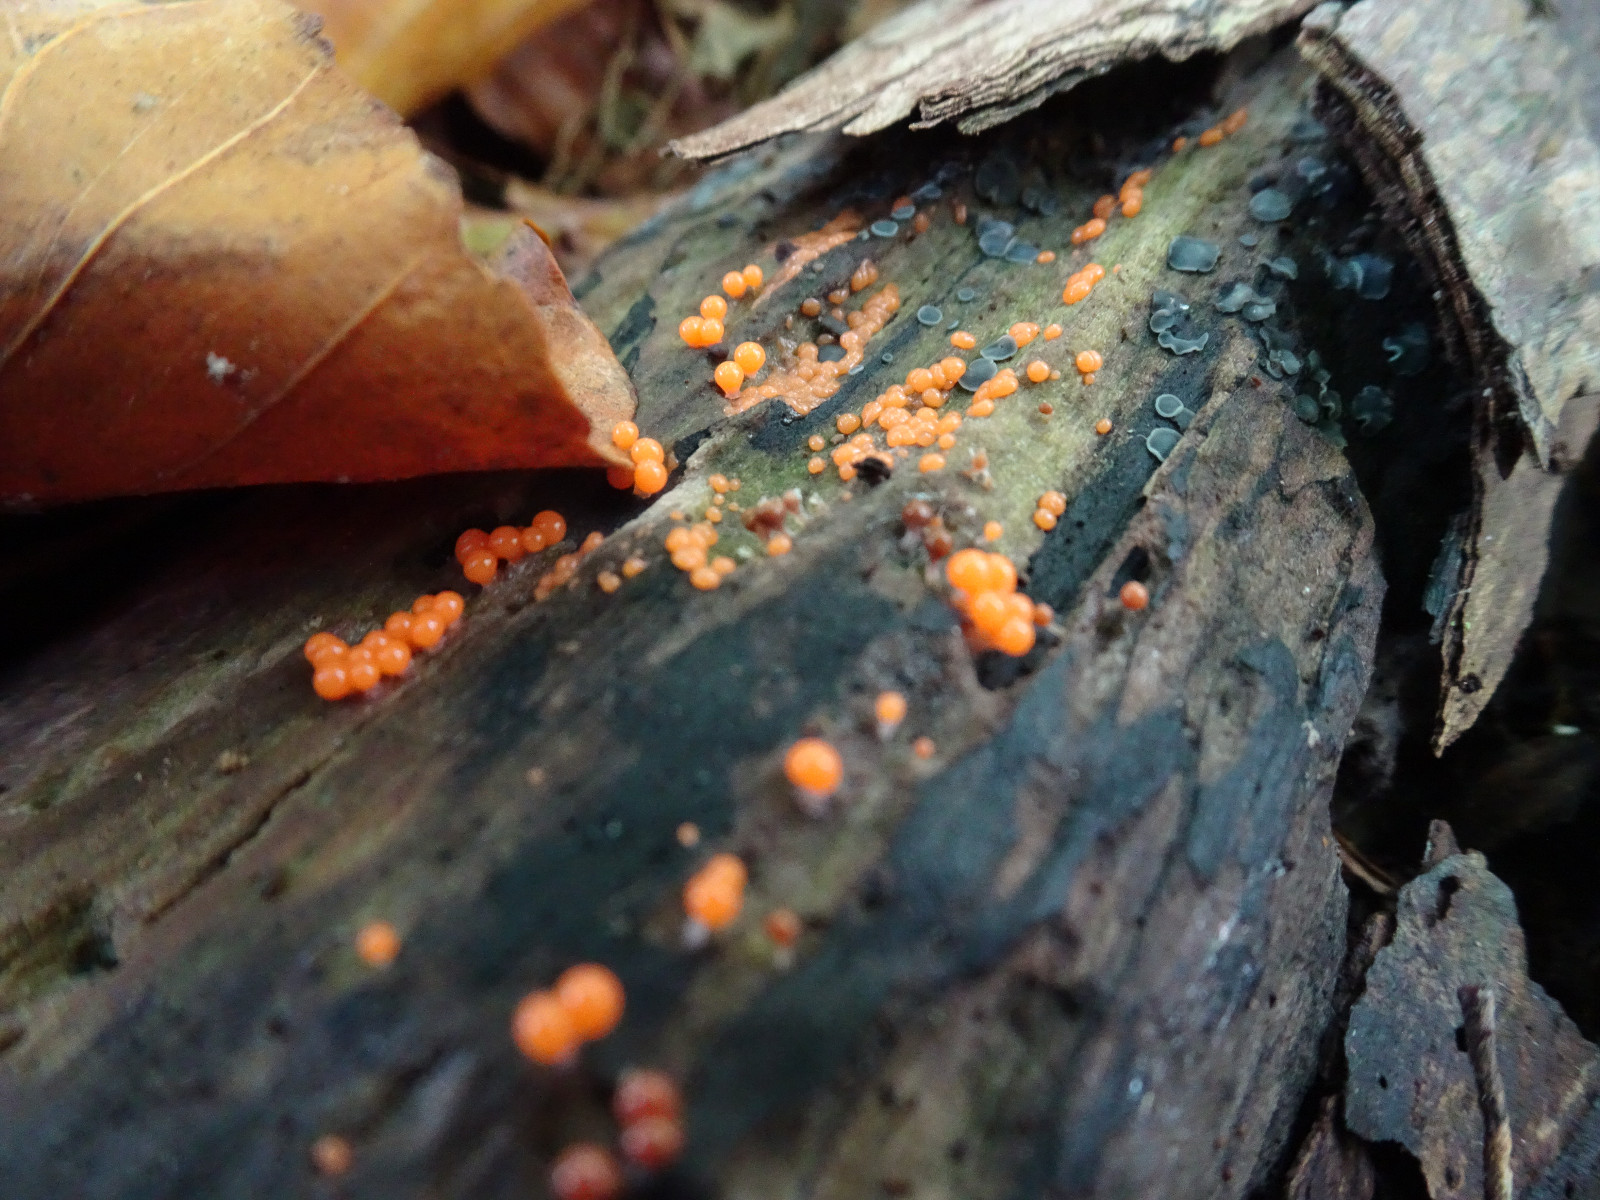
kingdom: Protozoa
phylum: Mycetozoa
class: Myxomycetes
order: Trichiales
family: Trichiaceae
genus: Trichia
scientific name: Trichia
